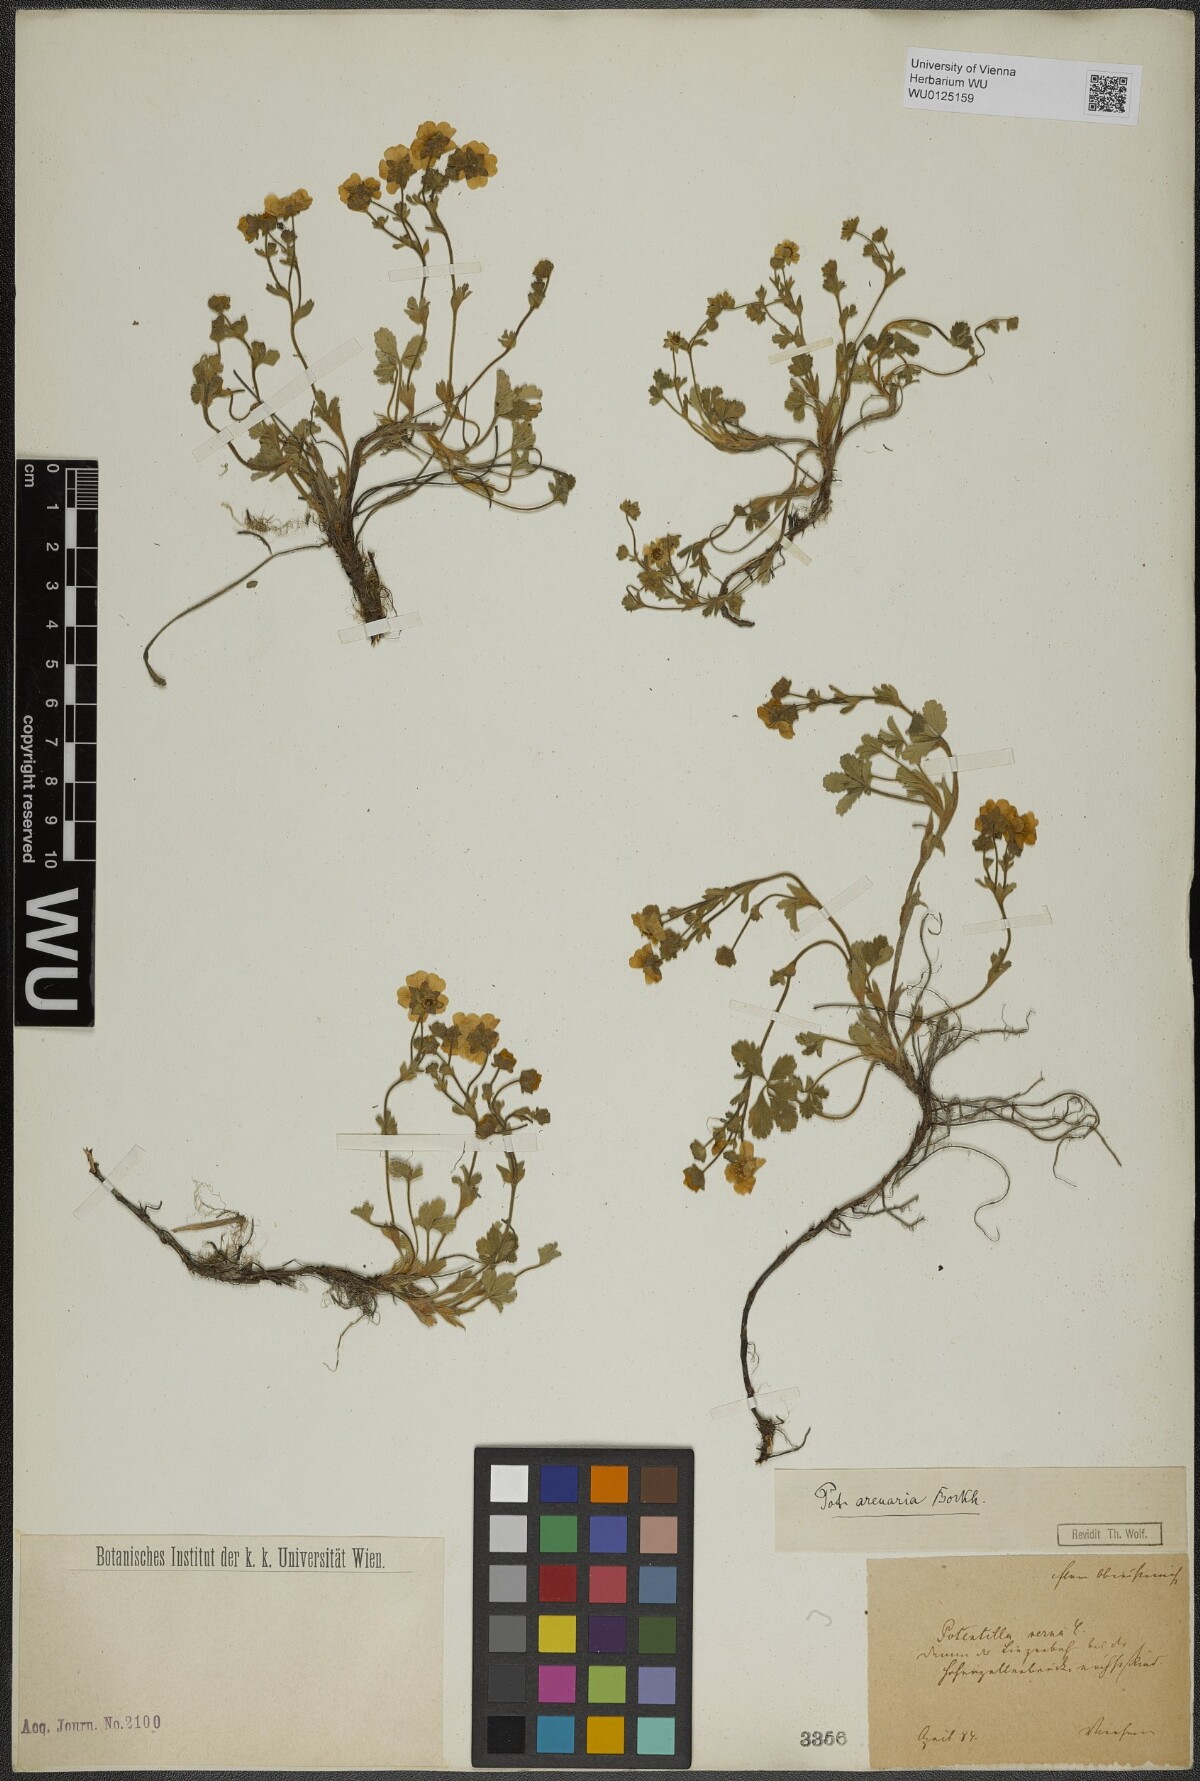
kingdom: Plantae
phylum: Tracheophyta
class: Magnoliopsida
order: Rosales
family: Rosaceae
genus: Potentilla
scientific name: Potentilla cinerea
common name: Ashy cinquefoil
